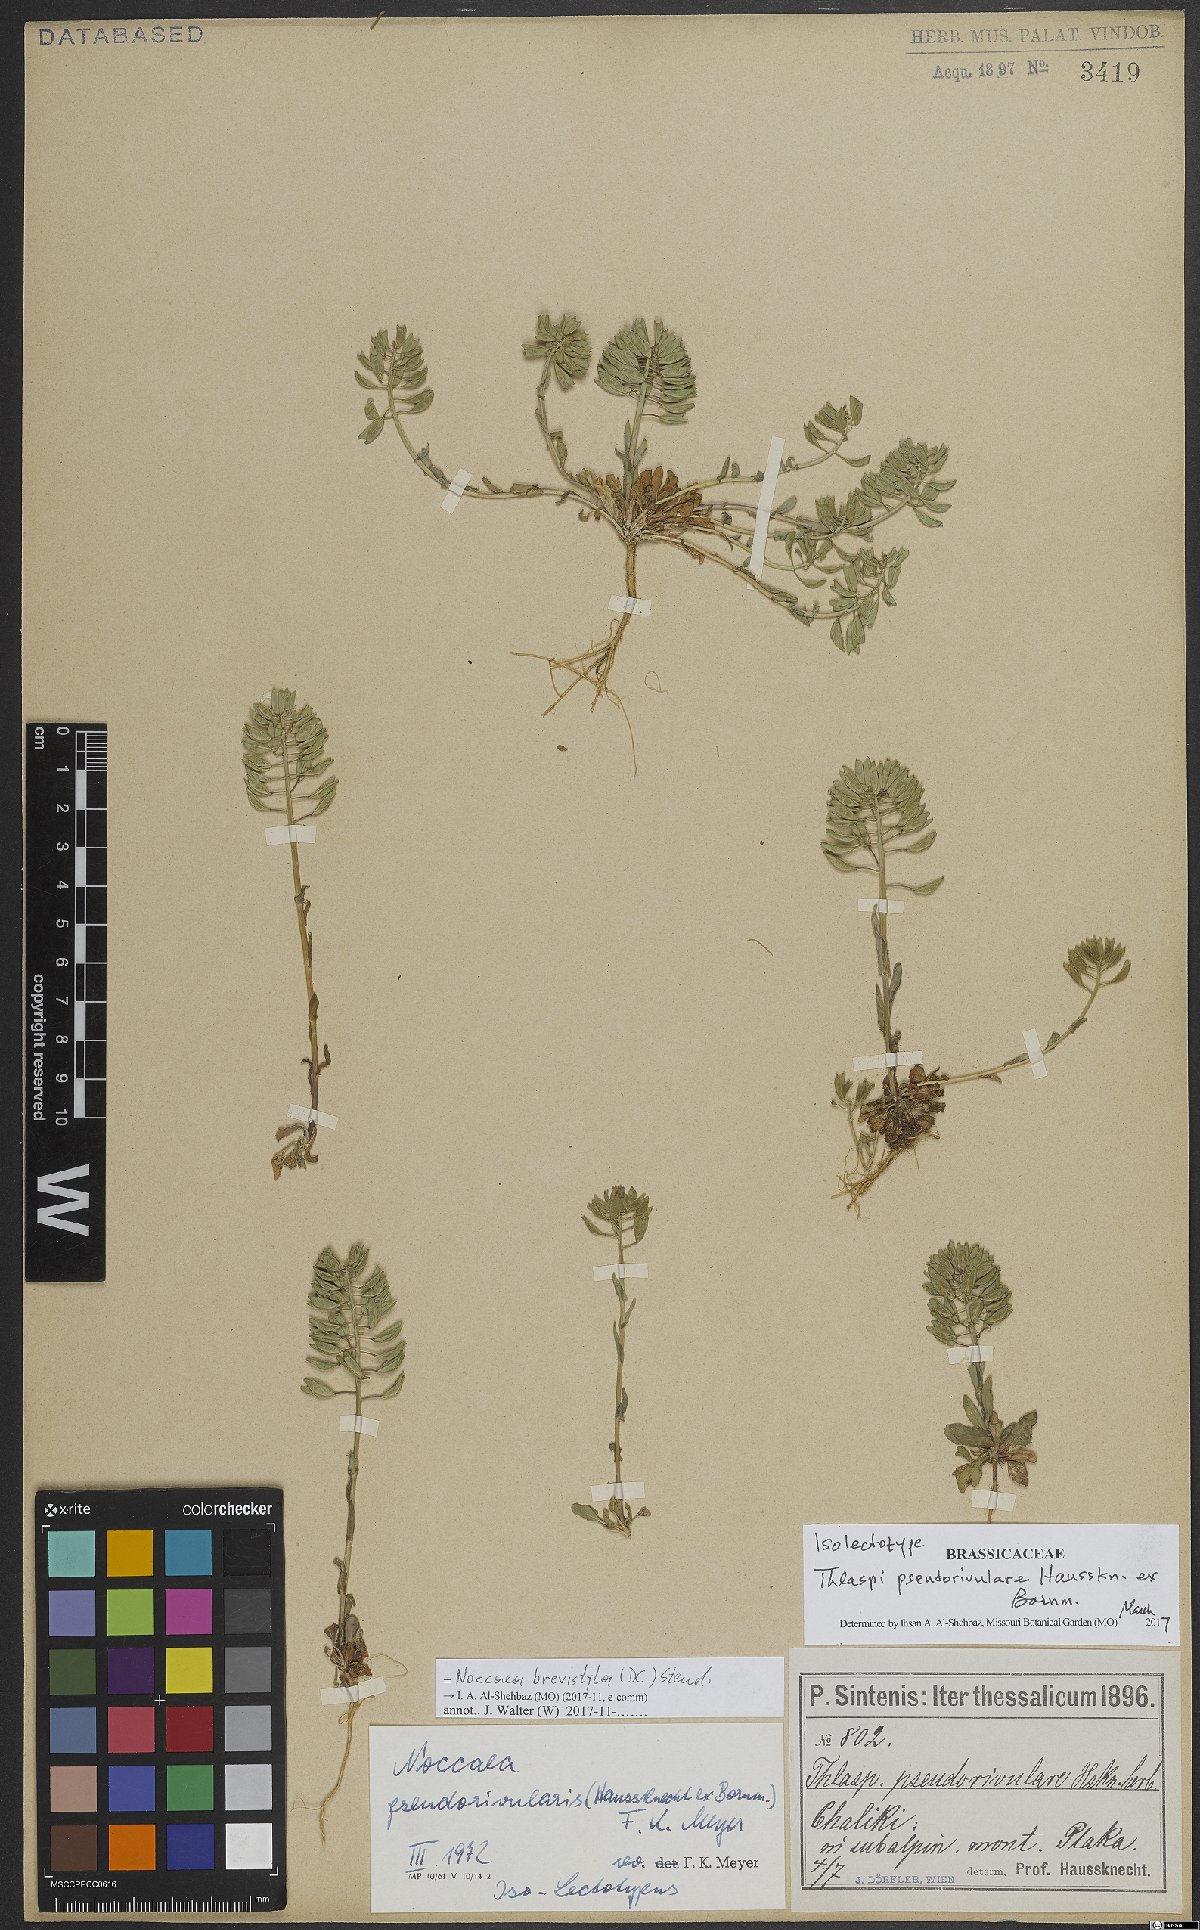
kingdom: Plantae
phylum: Tracheophyta
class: Magnoliopsida
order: Brassicales
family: Brassicaceae
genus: Noccaea
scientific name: Noccaea brevistyla
